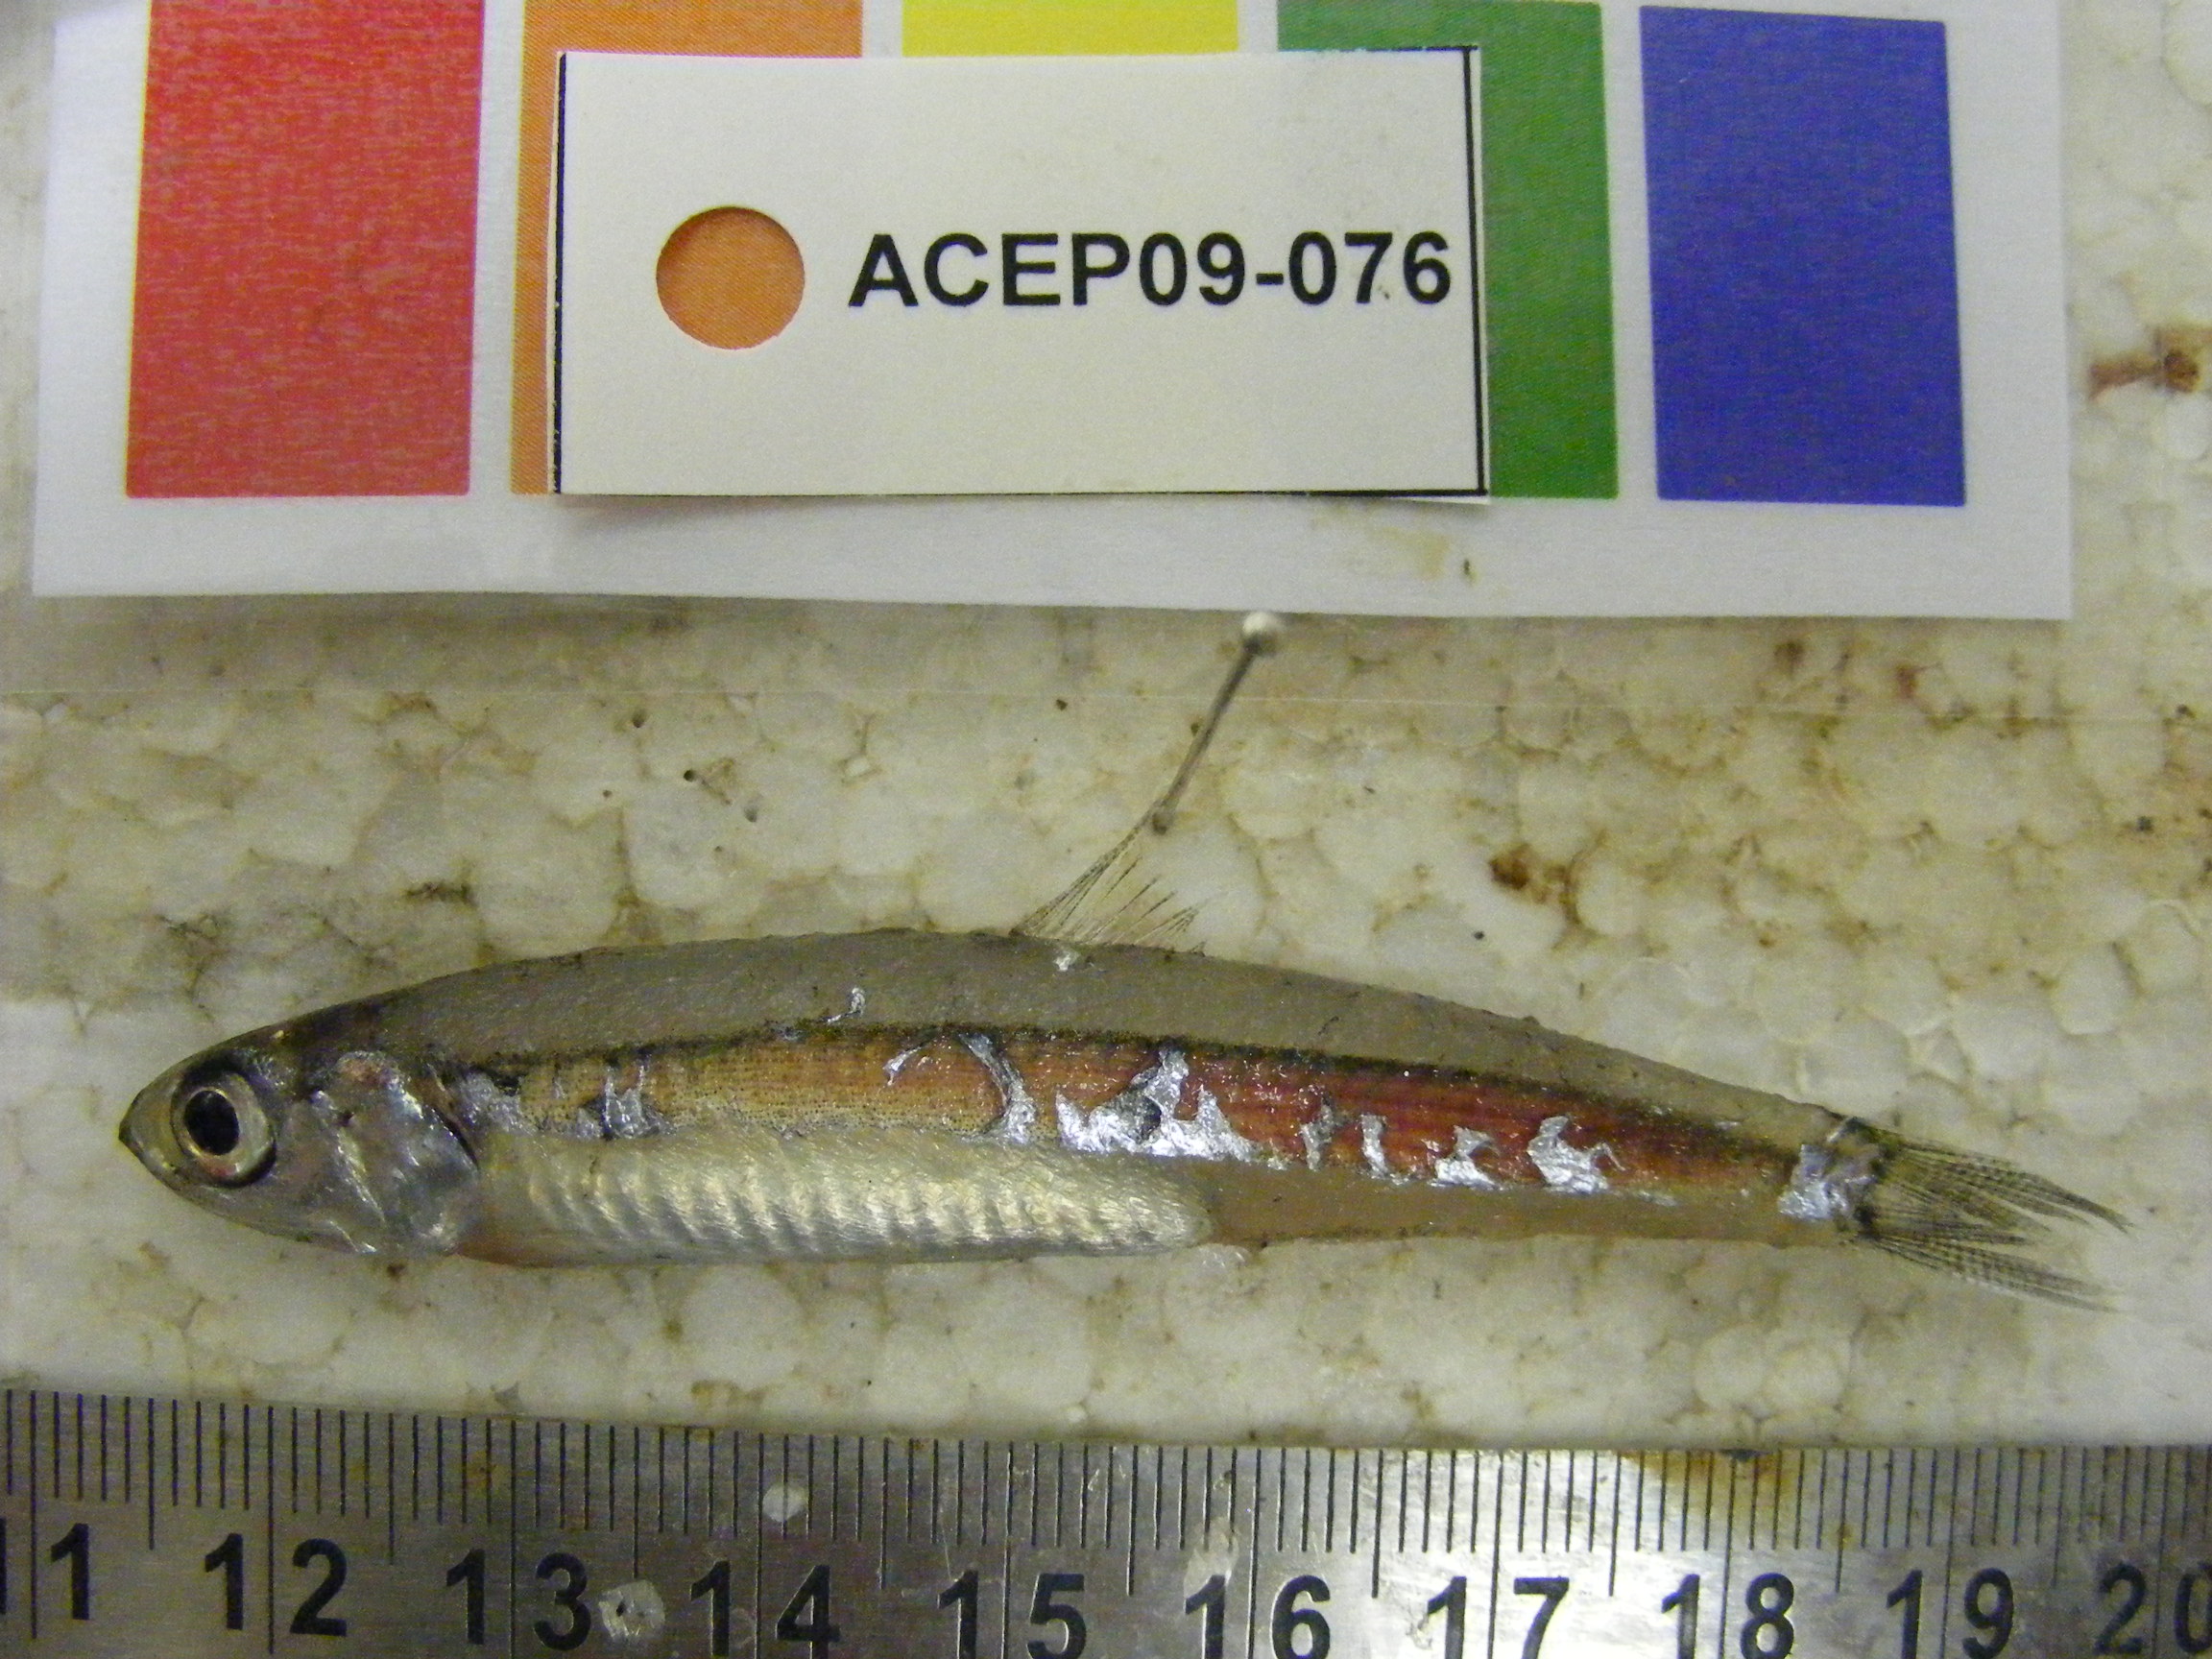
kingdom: Animalia
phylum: Chordata
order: Clupeiformes
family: Engraulidae
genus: Encrasicholina
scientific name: Encrasicholina punctifer
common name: Buccaneer anchovy
